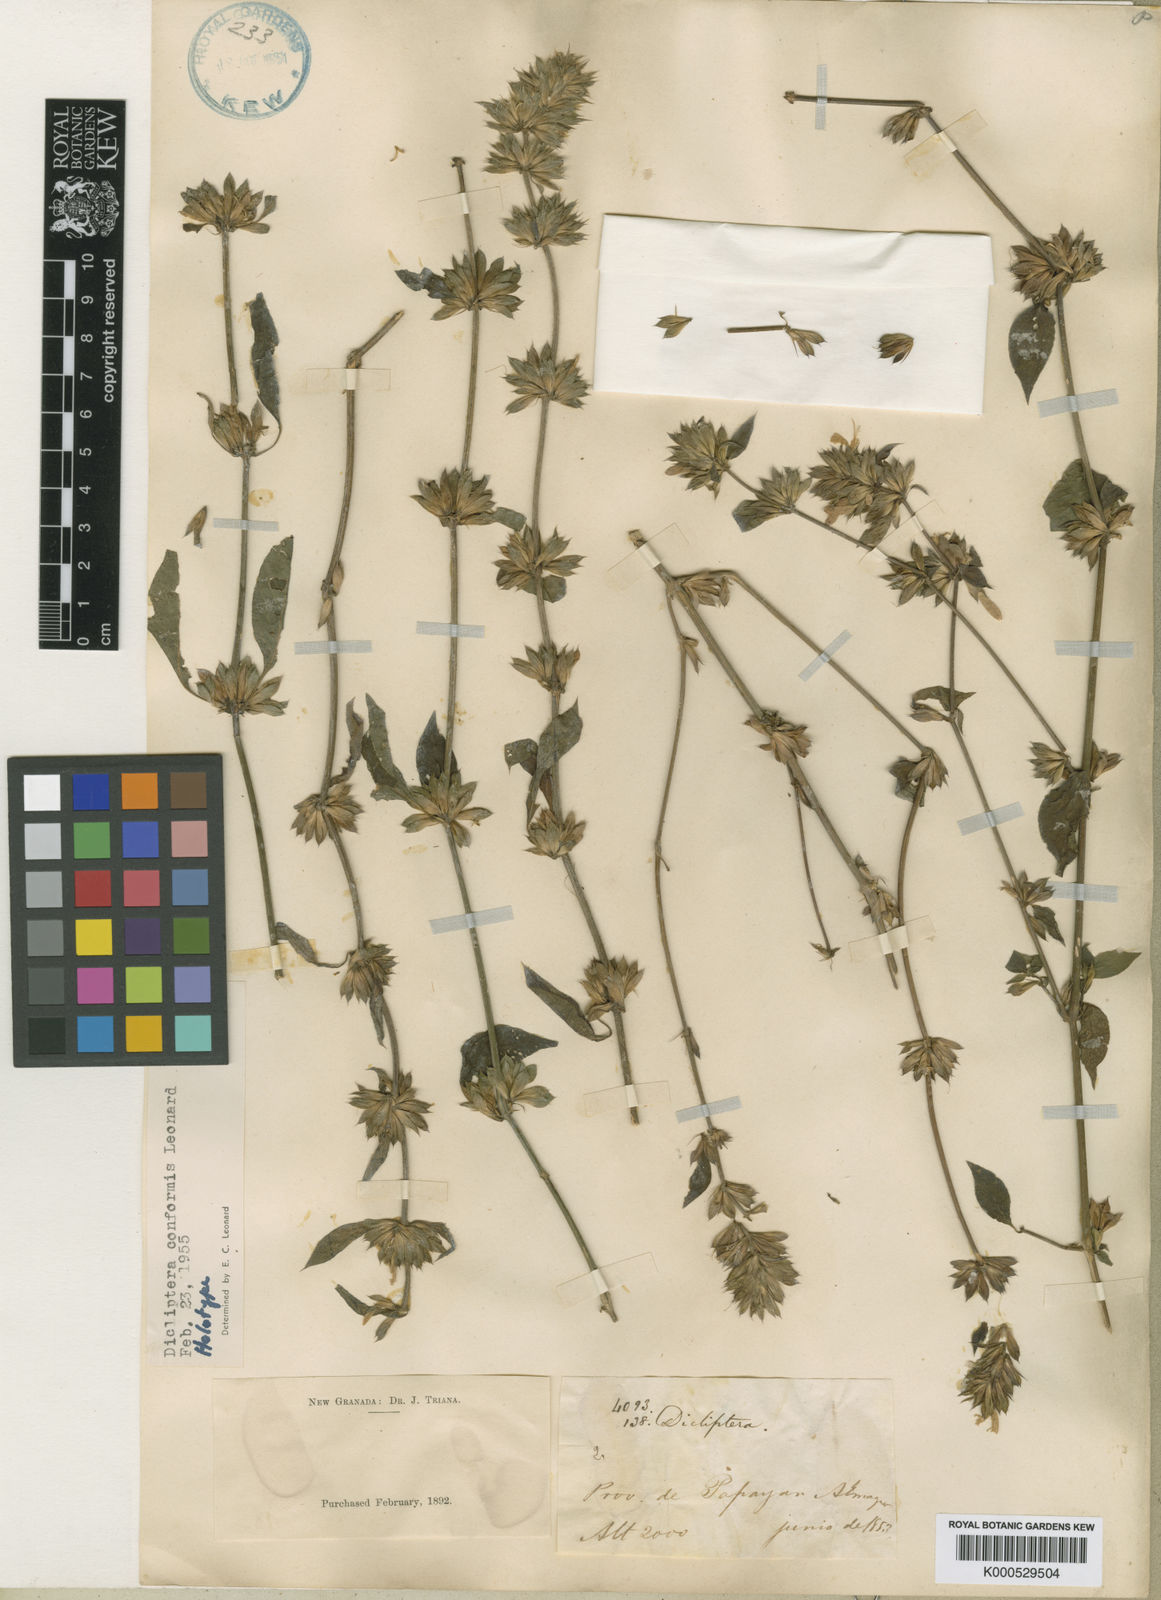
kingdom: Plantae
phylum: Tracheophyta
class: Magnoliopsida
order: Lamiales
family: Acanthaceae
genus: Dicliptera
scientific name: Dicliptera caucensis
